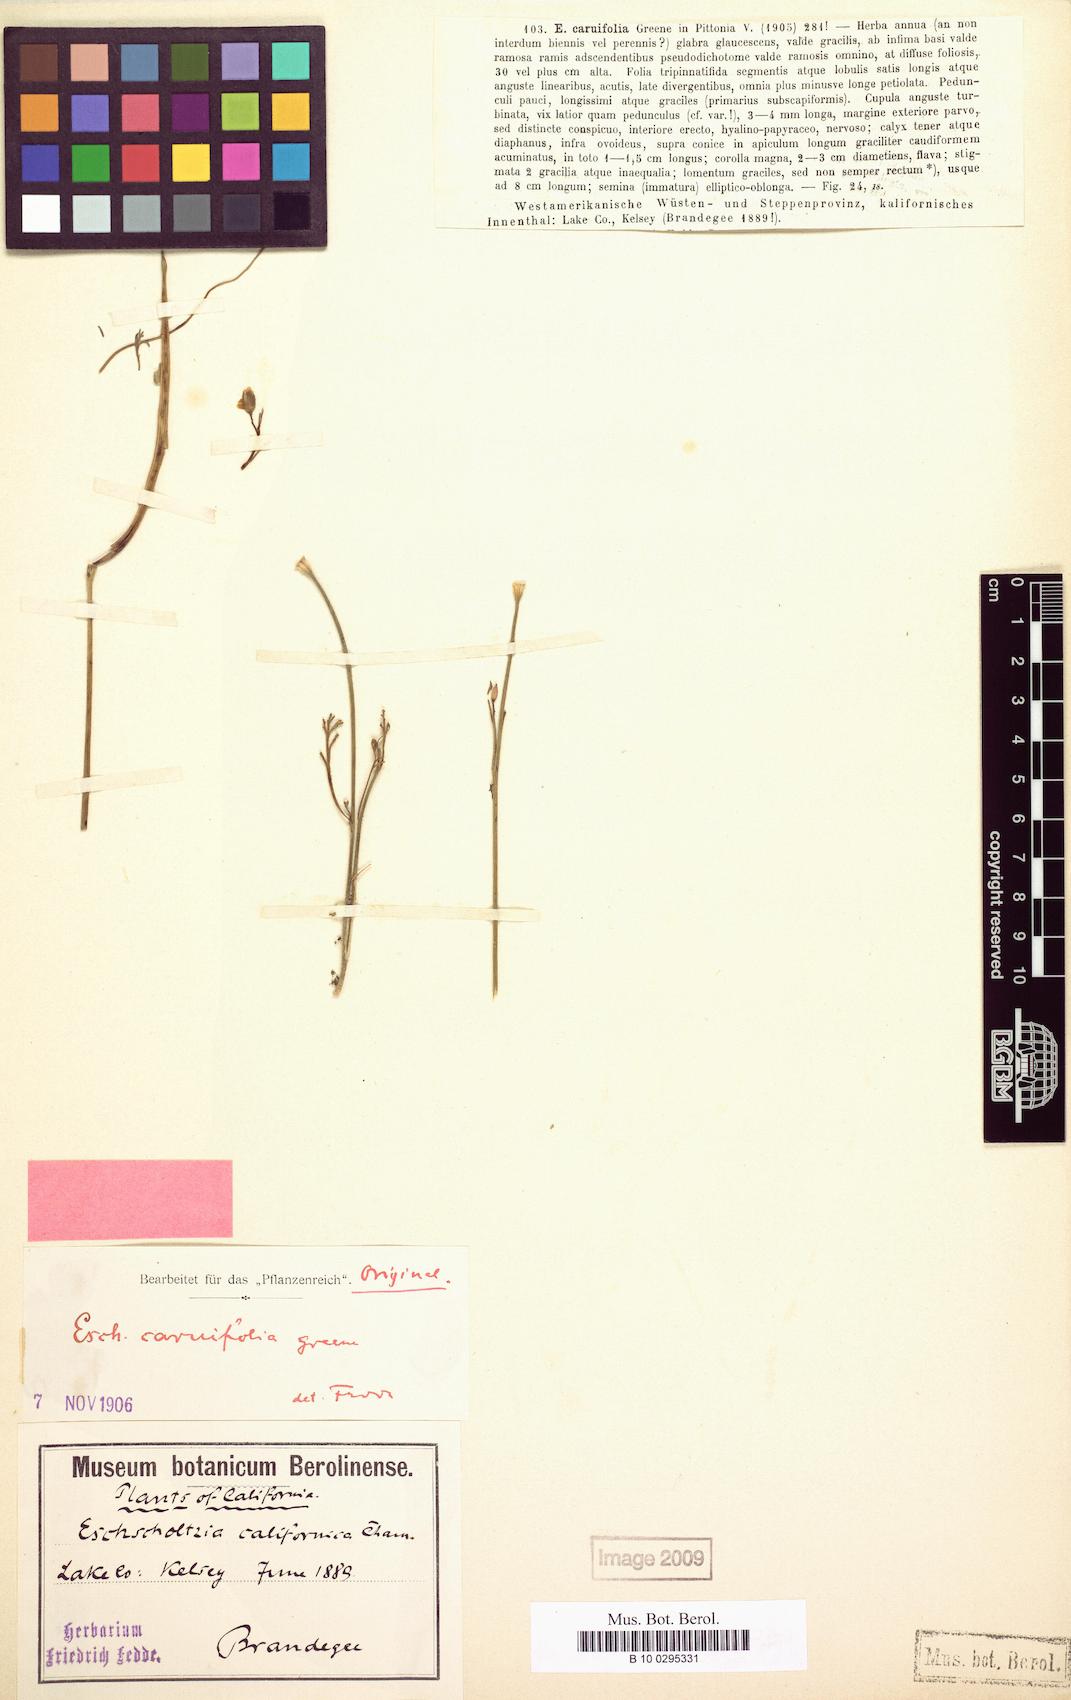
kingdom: Plantae
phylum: Tracheophyta
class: Magnoliopsida
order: Ranunculales
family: Papaveraceae
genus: Eschscholzia
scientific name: Eschscholzia caespitosa
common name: Tufted california-poppy
